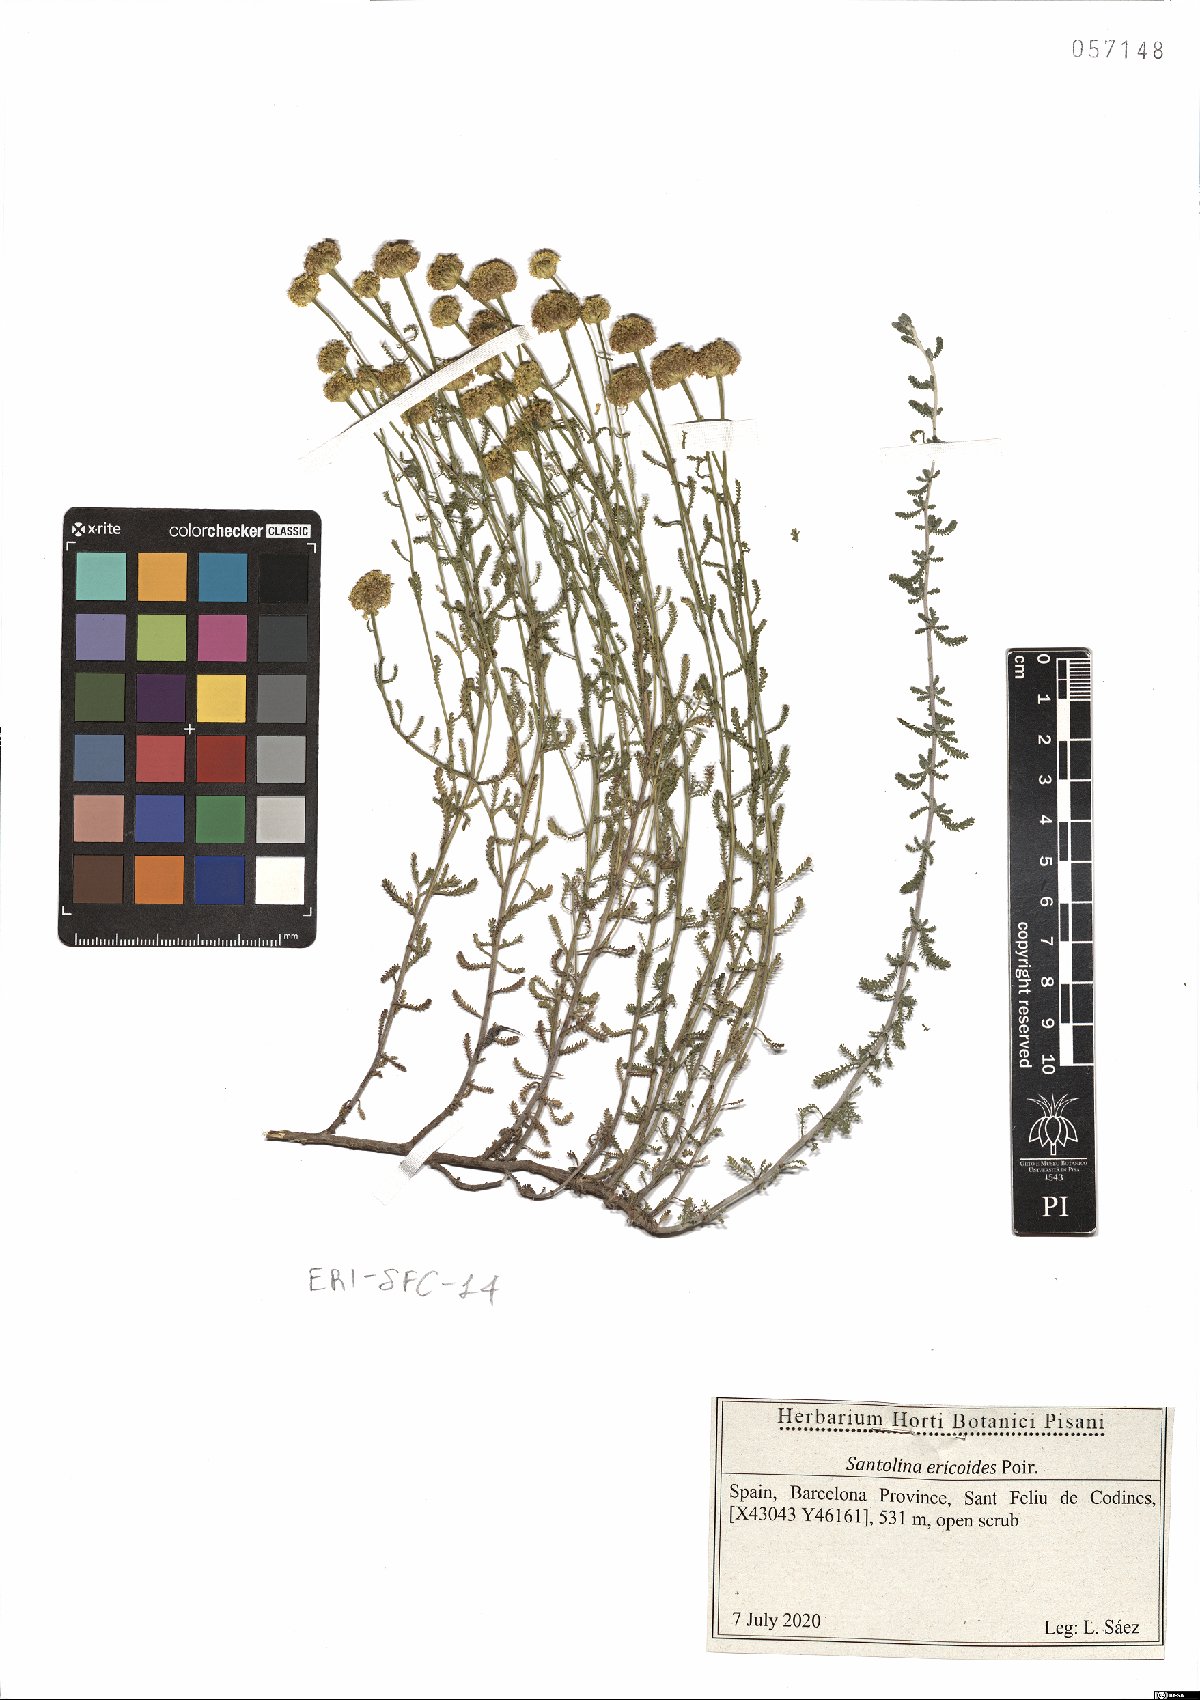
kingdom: Plantae
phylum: Tracheophyta
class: Magnoliopsida
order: Asterales
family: Asteraceae
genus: Santolina
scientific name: Santolina ericoides
